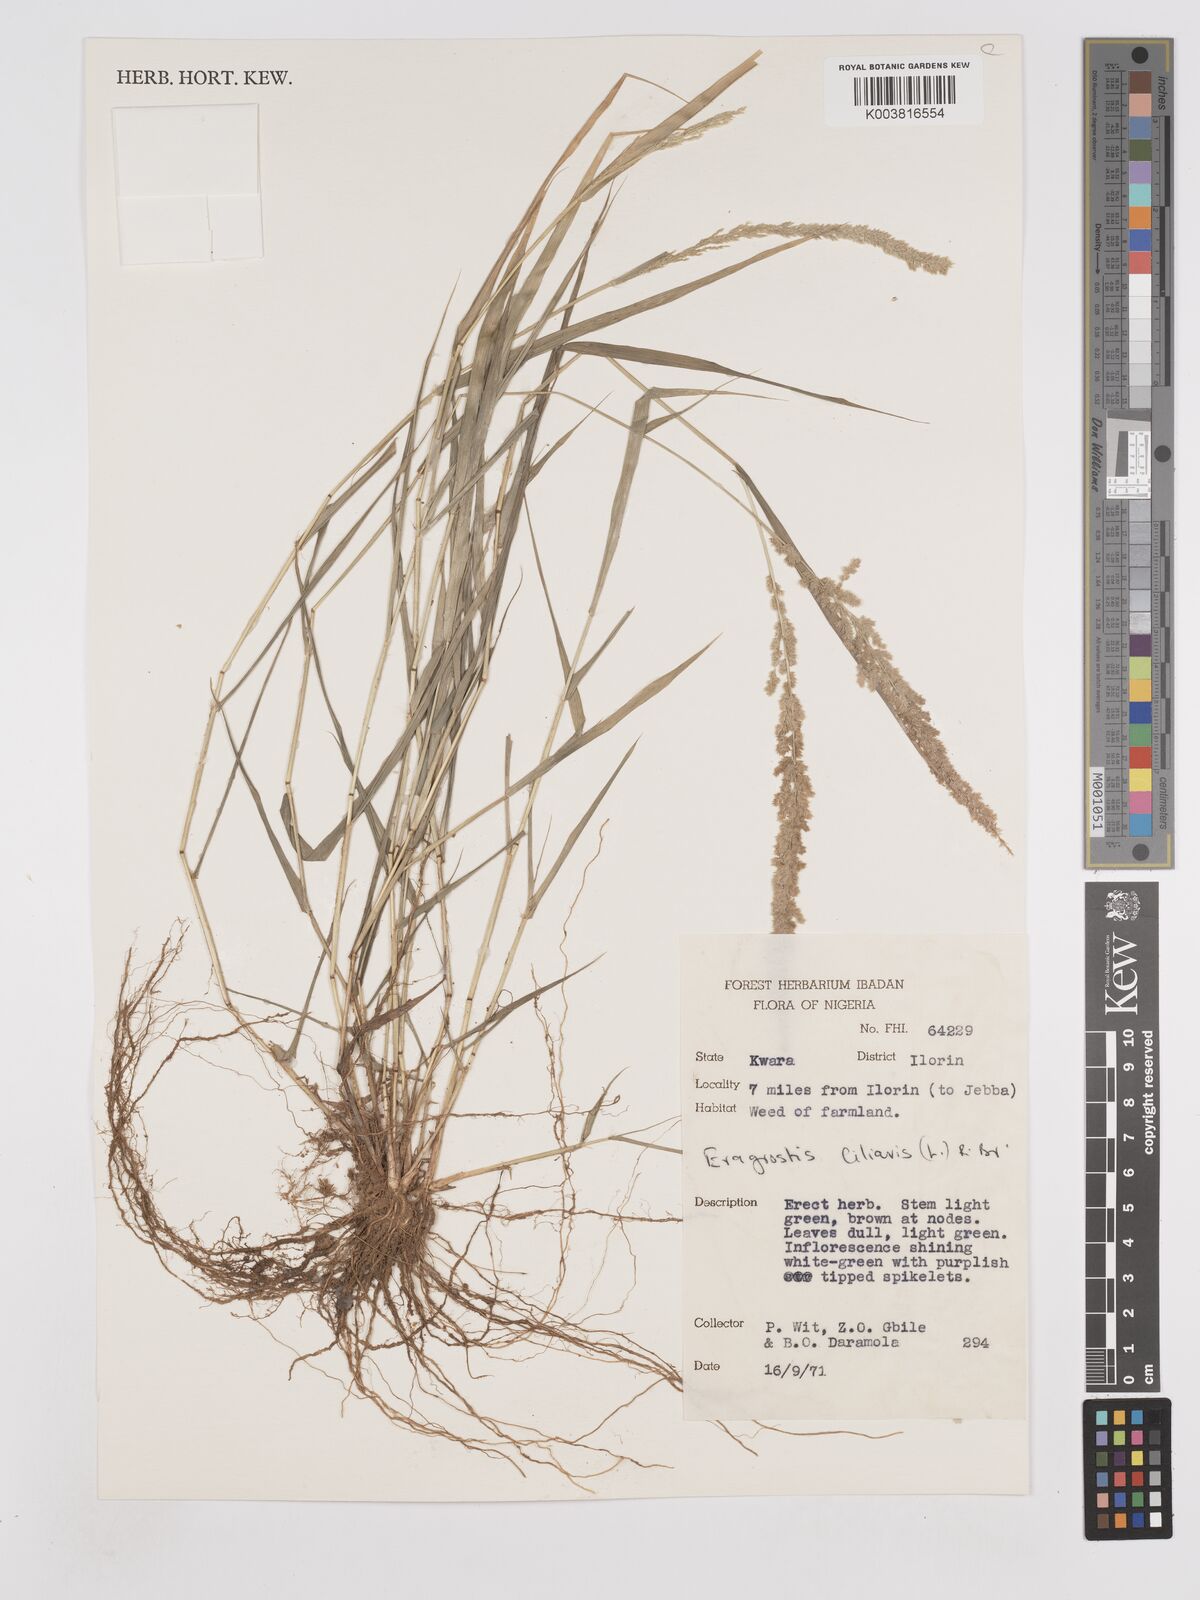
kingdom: Plantae
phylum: Tracheophyta
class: Liliopsida
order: Poales
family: Poaceae
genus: Eragrostis
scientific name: Eragrostis ciliaris
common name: Gophertail lovegrass
